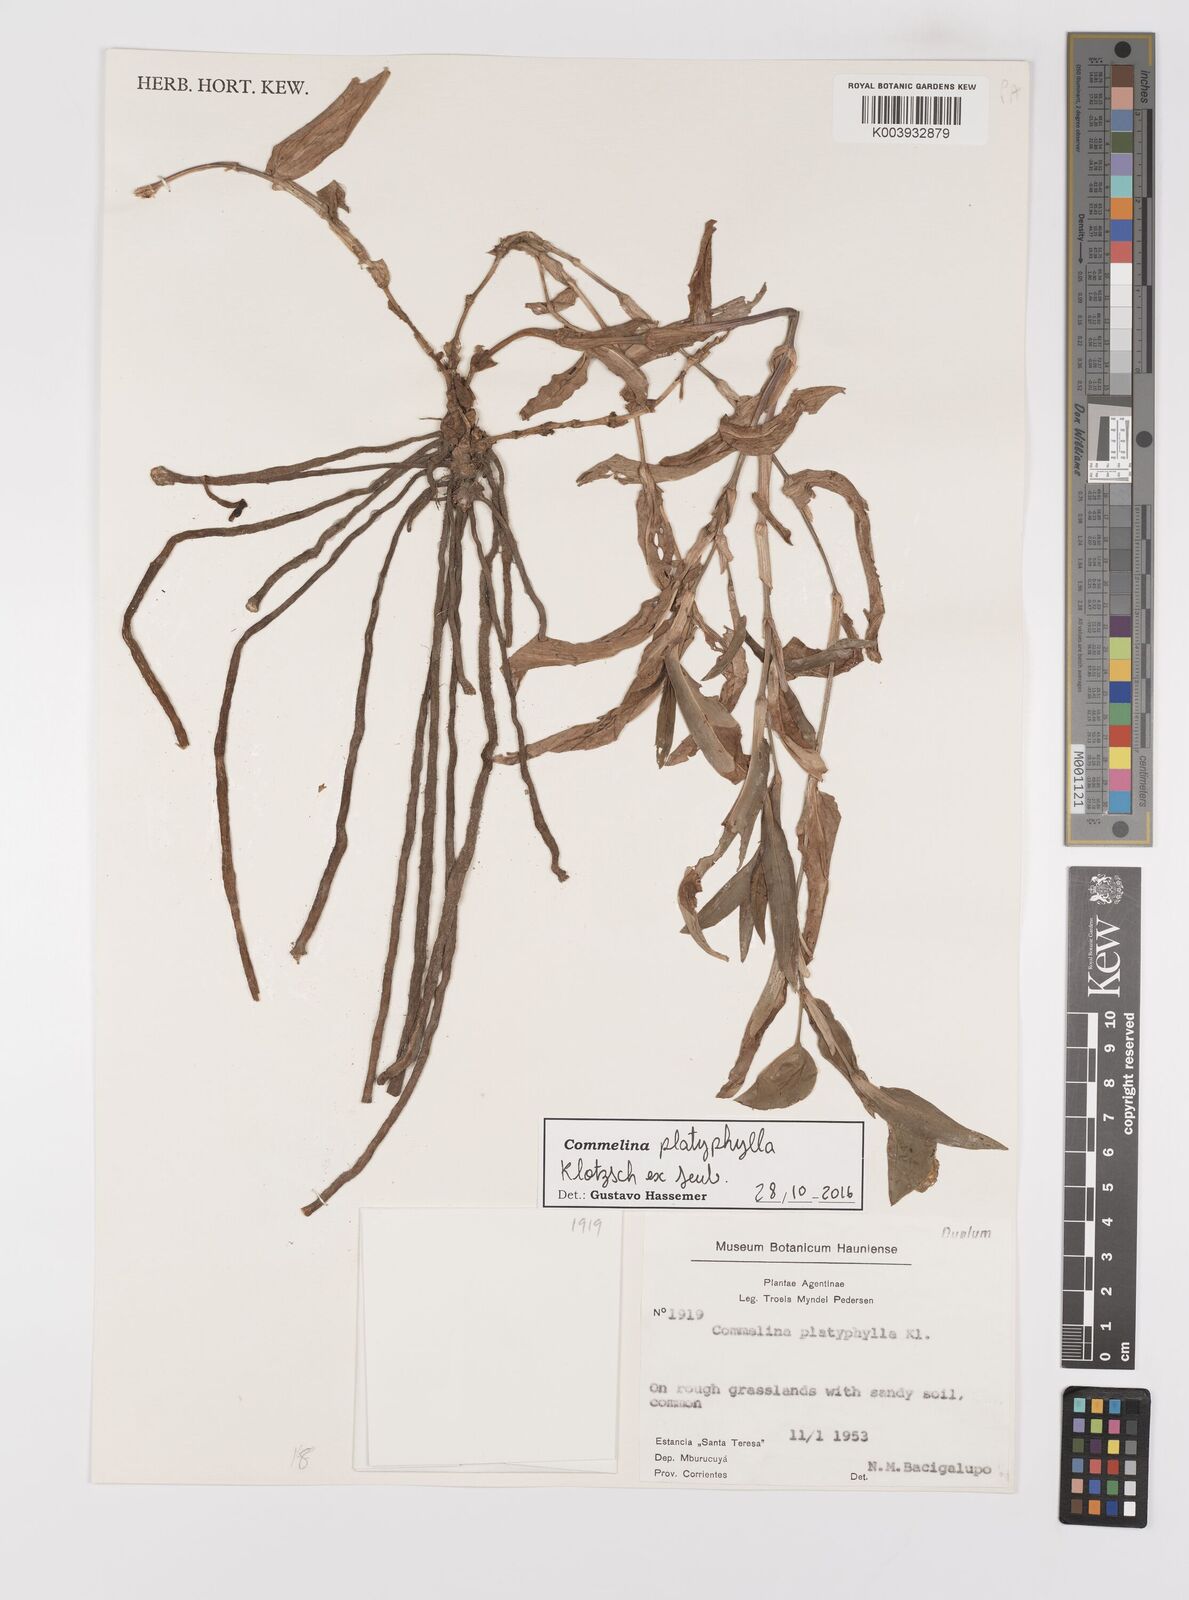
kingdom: Plantae
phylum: Tracheophyta
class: Liliopsida
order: Commelinales
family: Commelinaceae
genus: Commelina
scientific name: Commelina platyphylla
